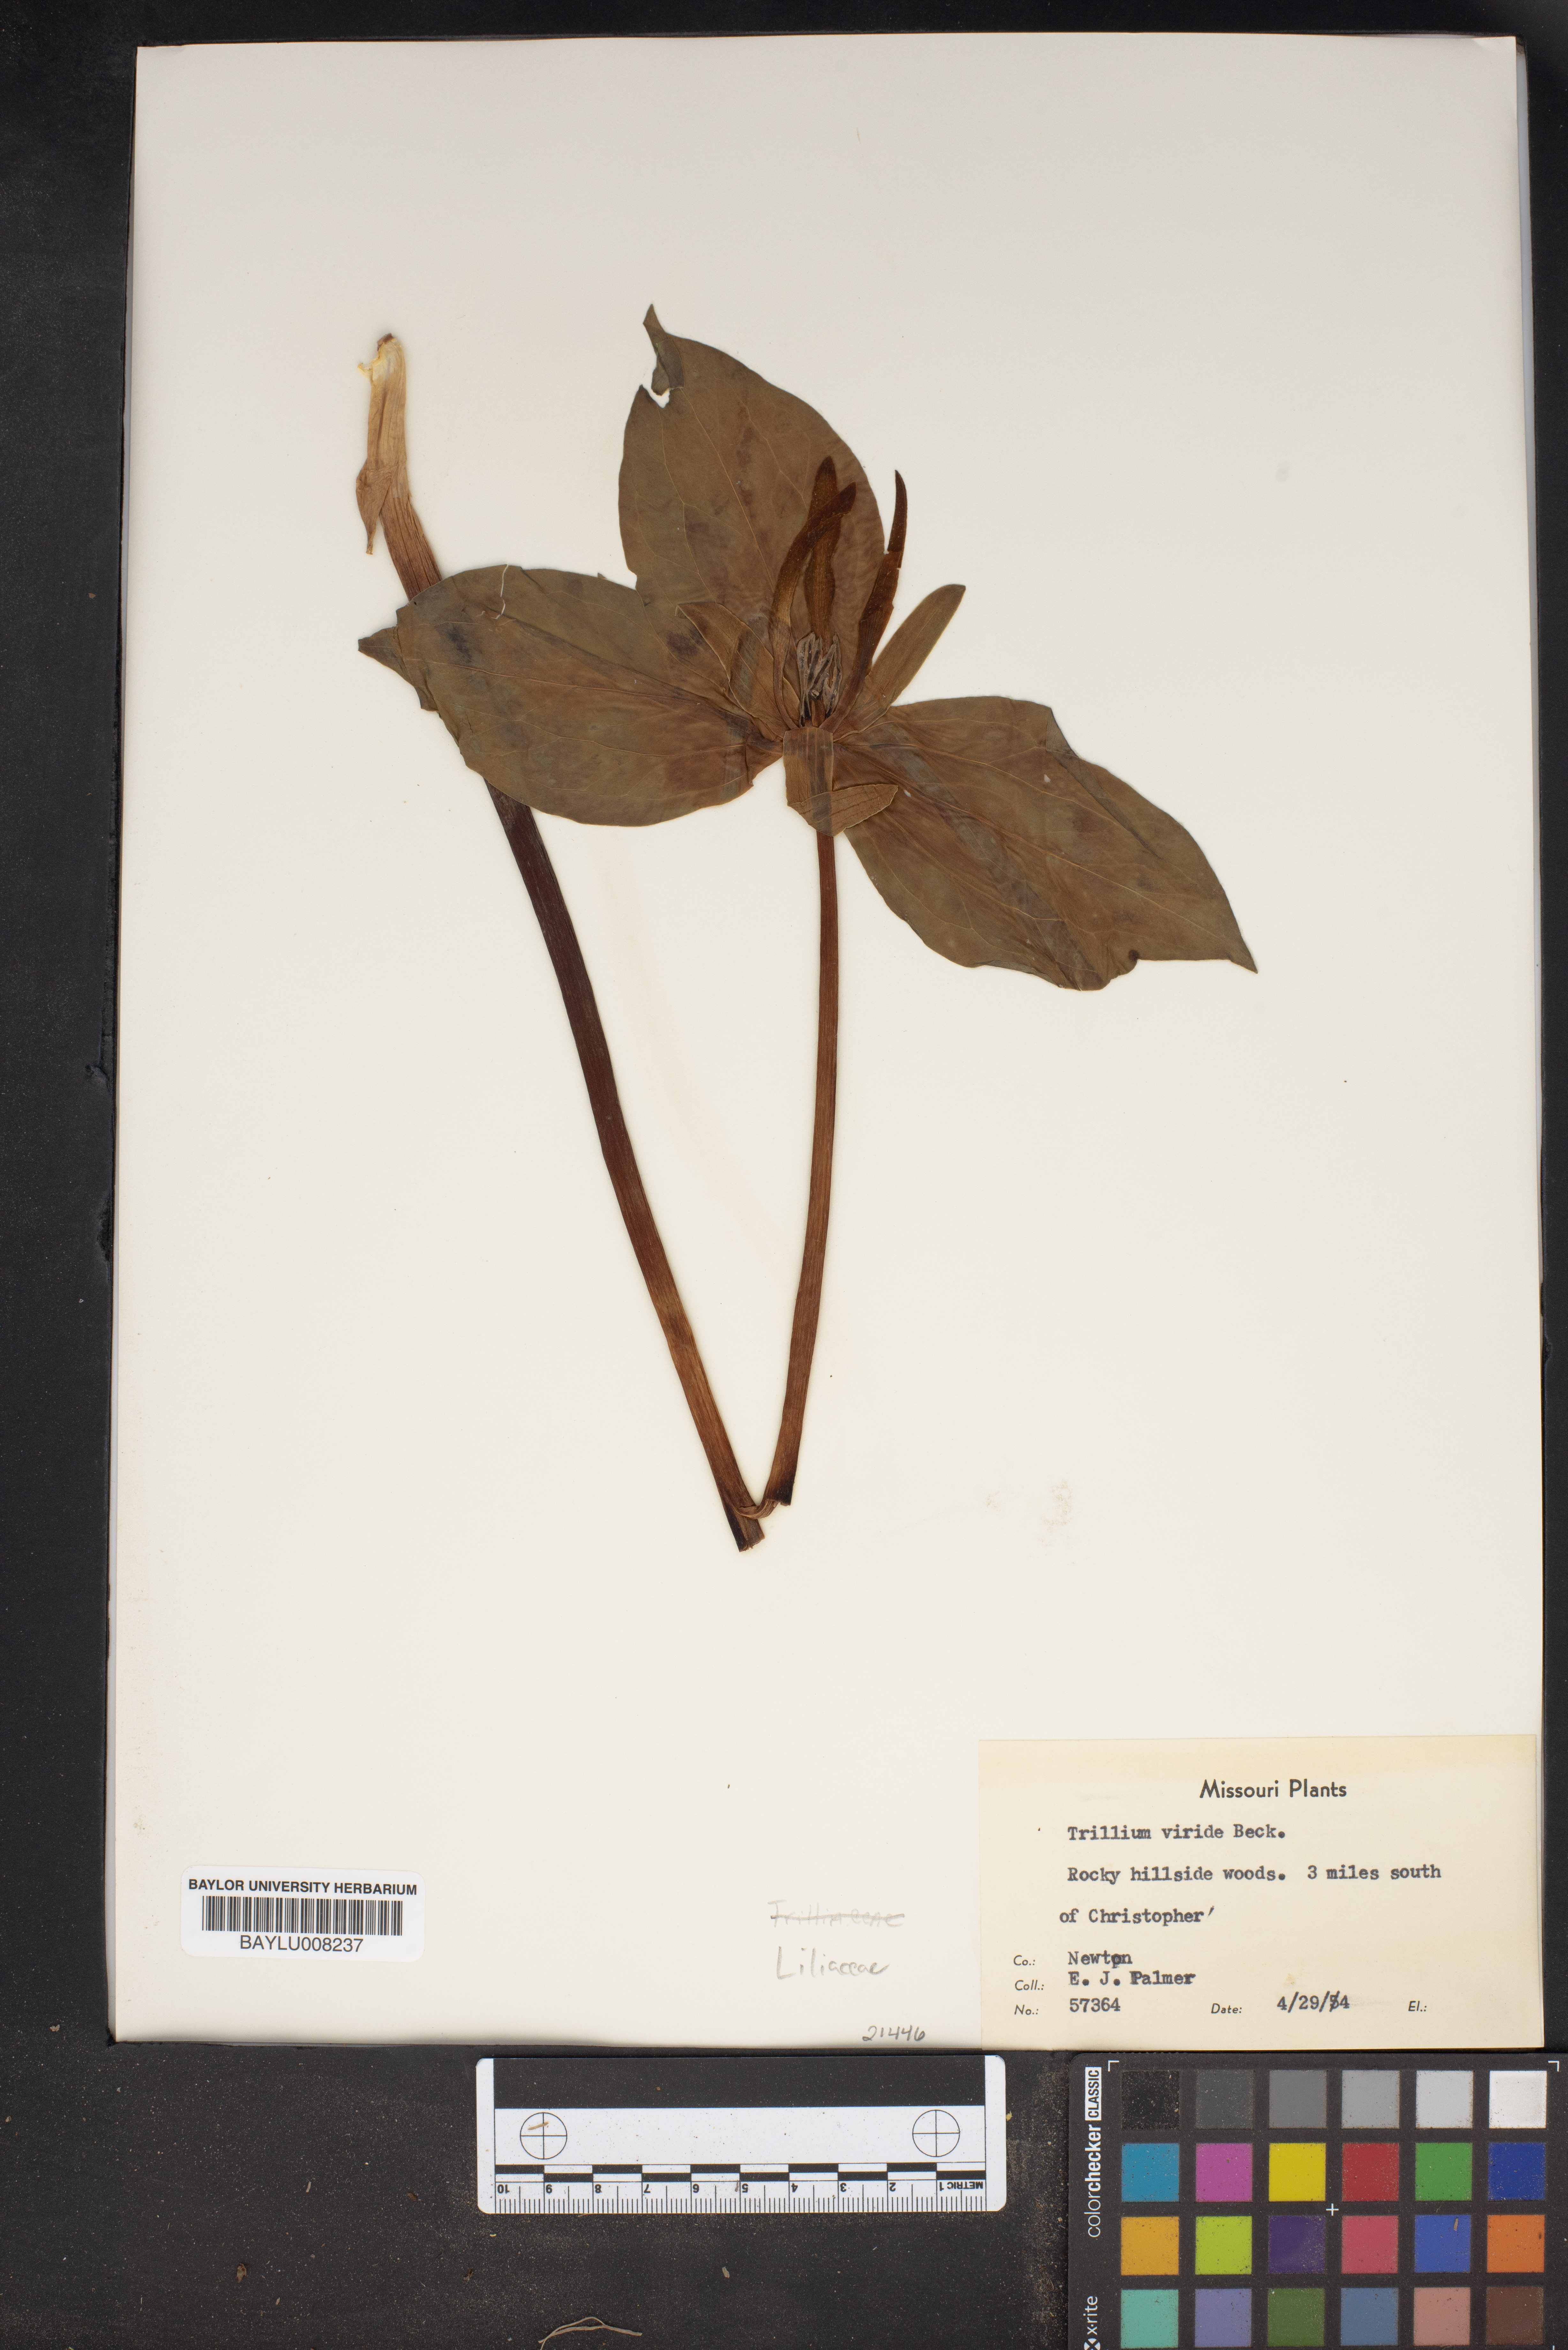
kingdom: Plantae
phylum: Tracheophyta
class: Liliopsida
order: Liliales
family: Melanthiaceae
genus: Trillium
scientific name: Trillium viride
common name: Green trillium
